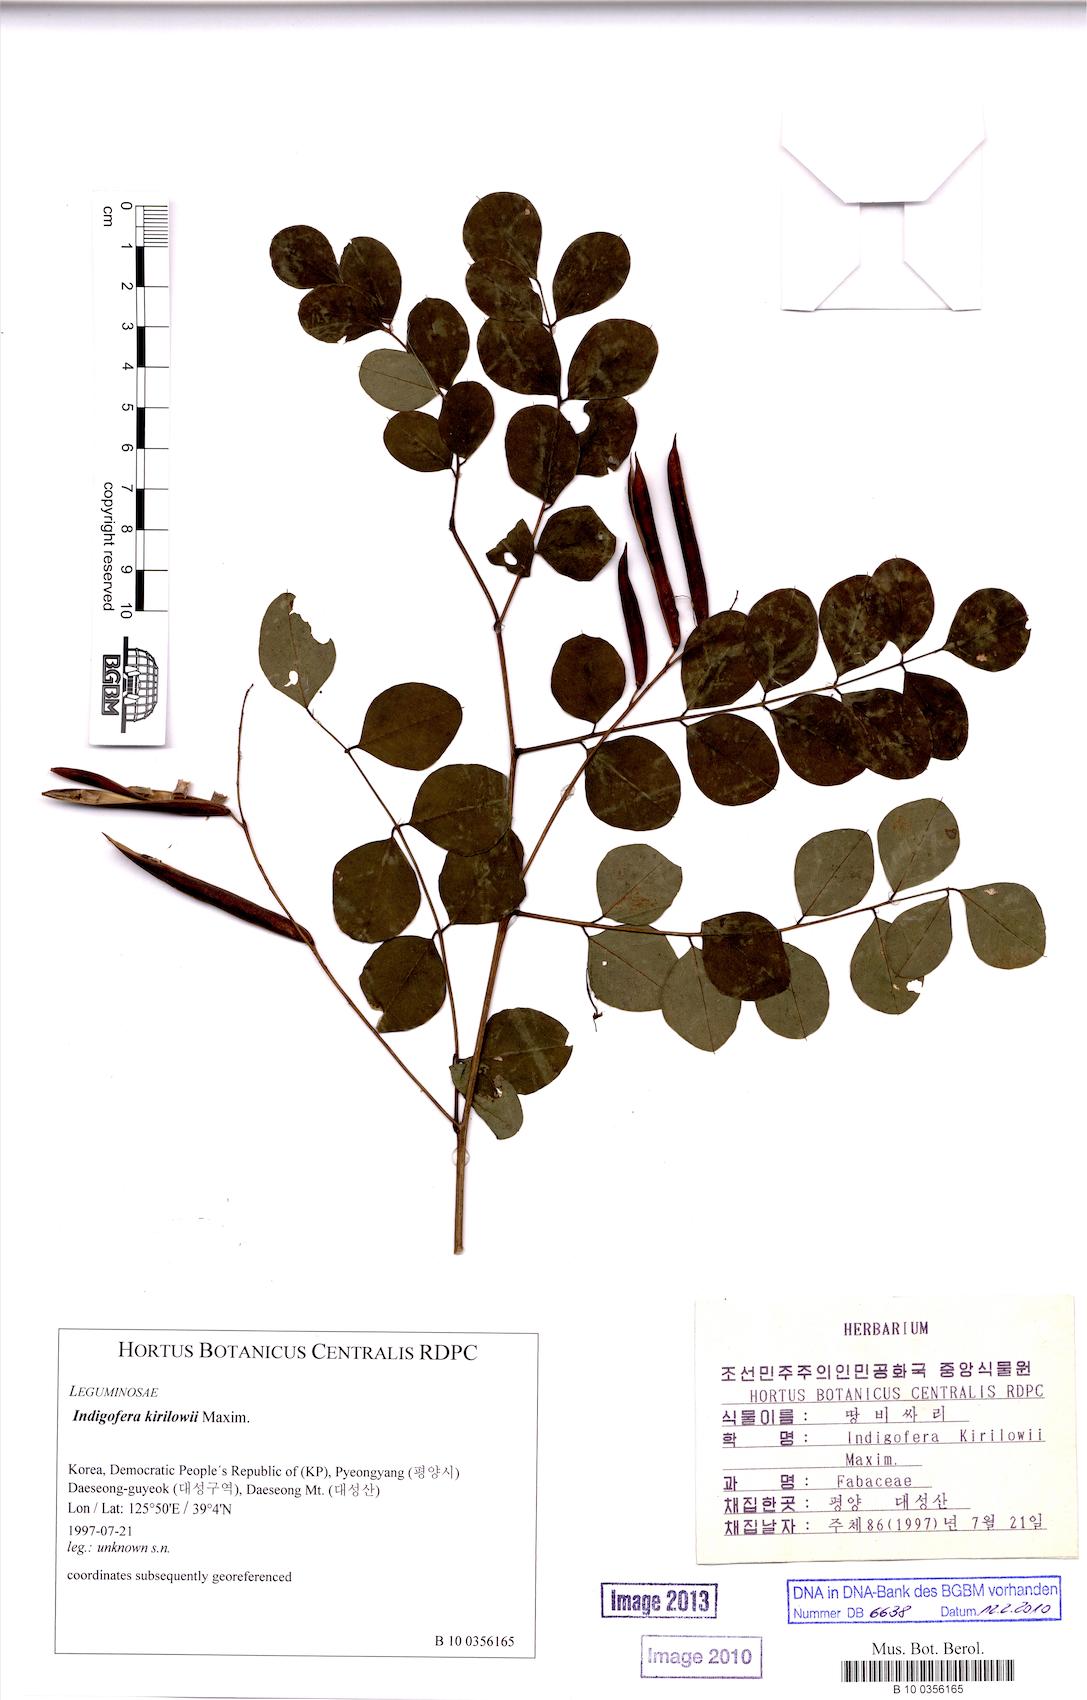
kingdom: Plantae
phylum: Tracheophyta
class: Magnoliopsida
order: Fabales
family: Fabaceae
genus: Indigofera
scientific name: Indigofera kirilowii
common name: Kirilow's indigo
